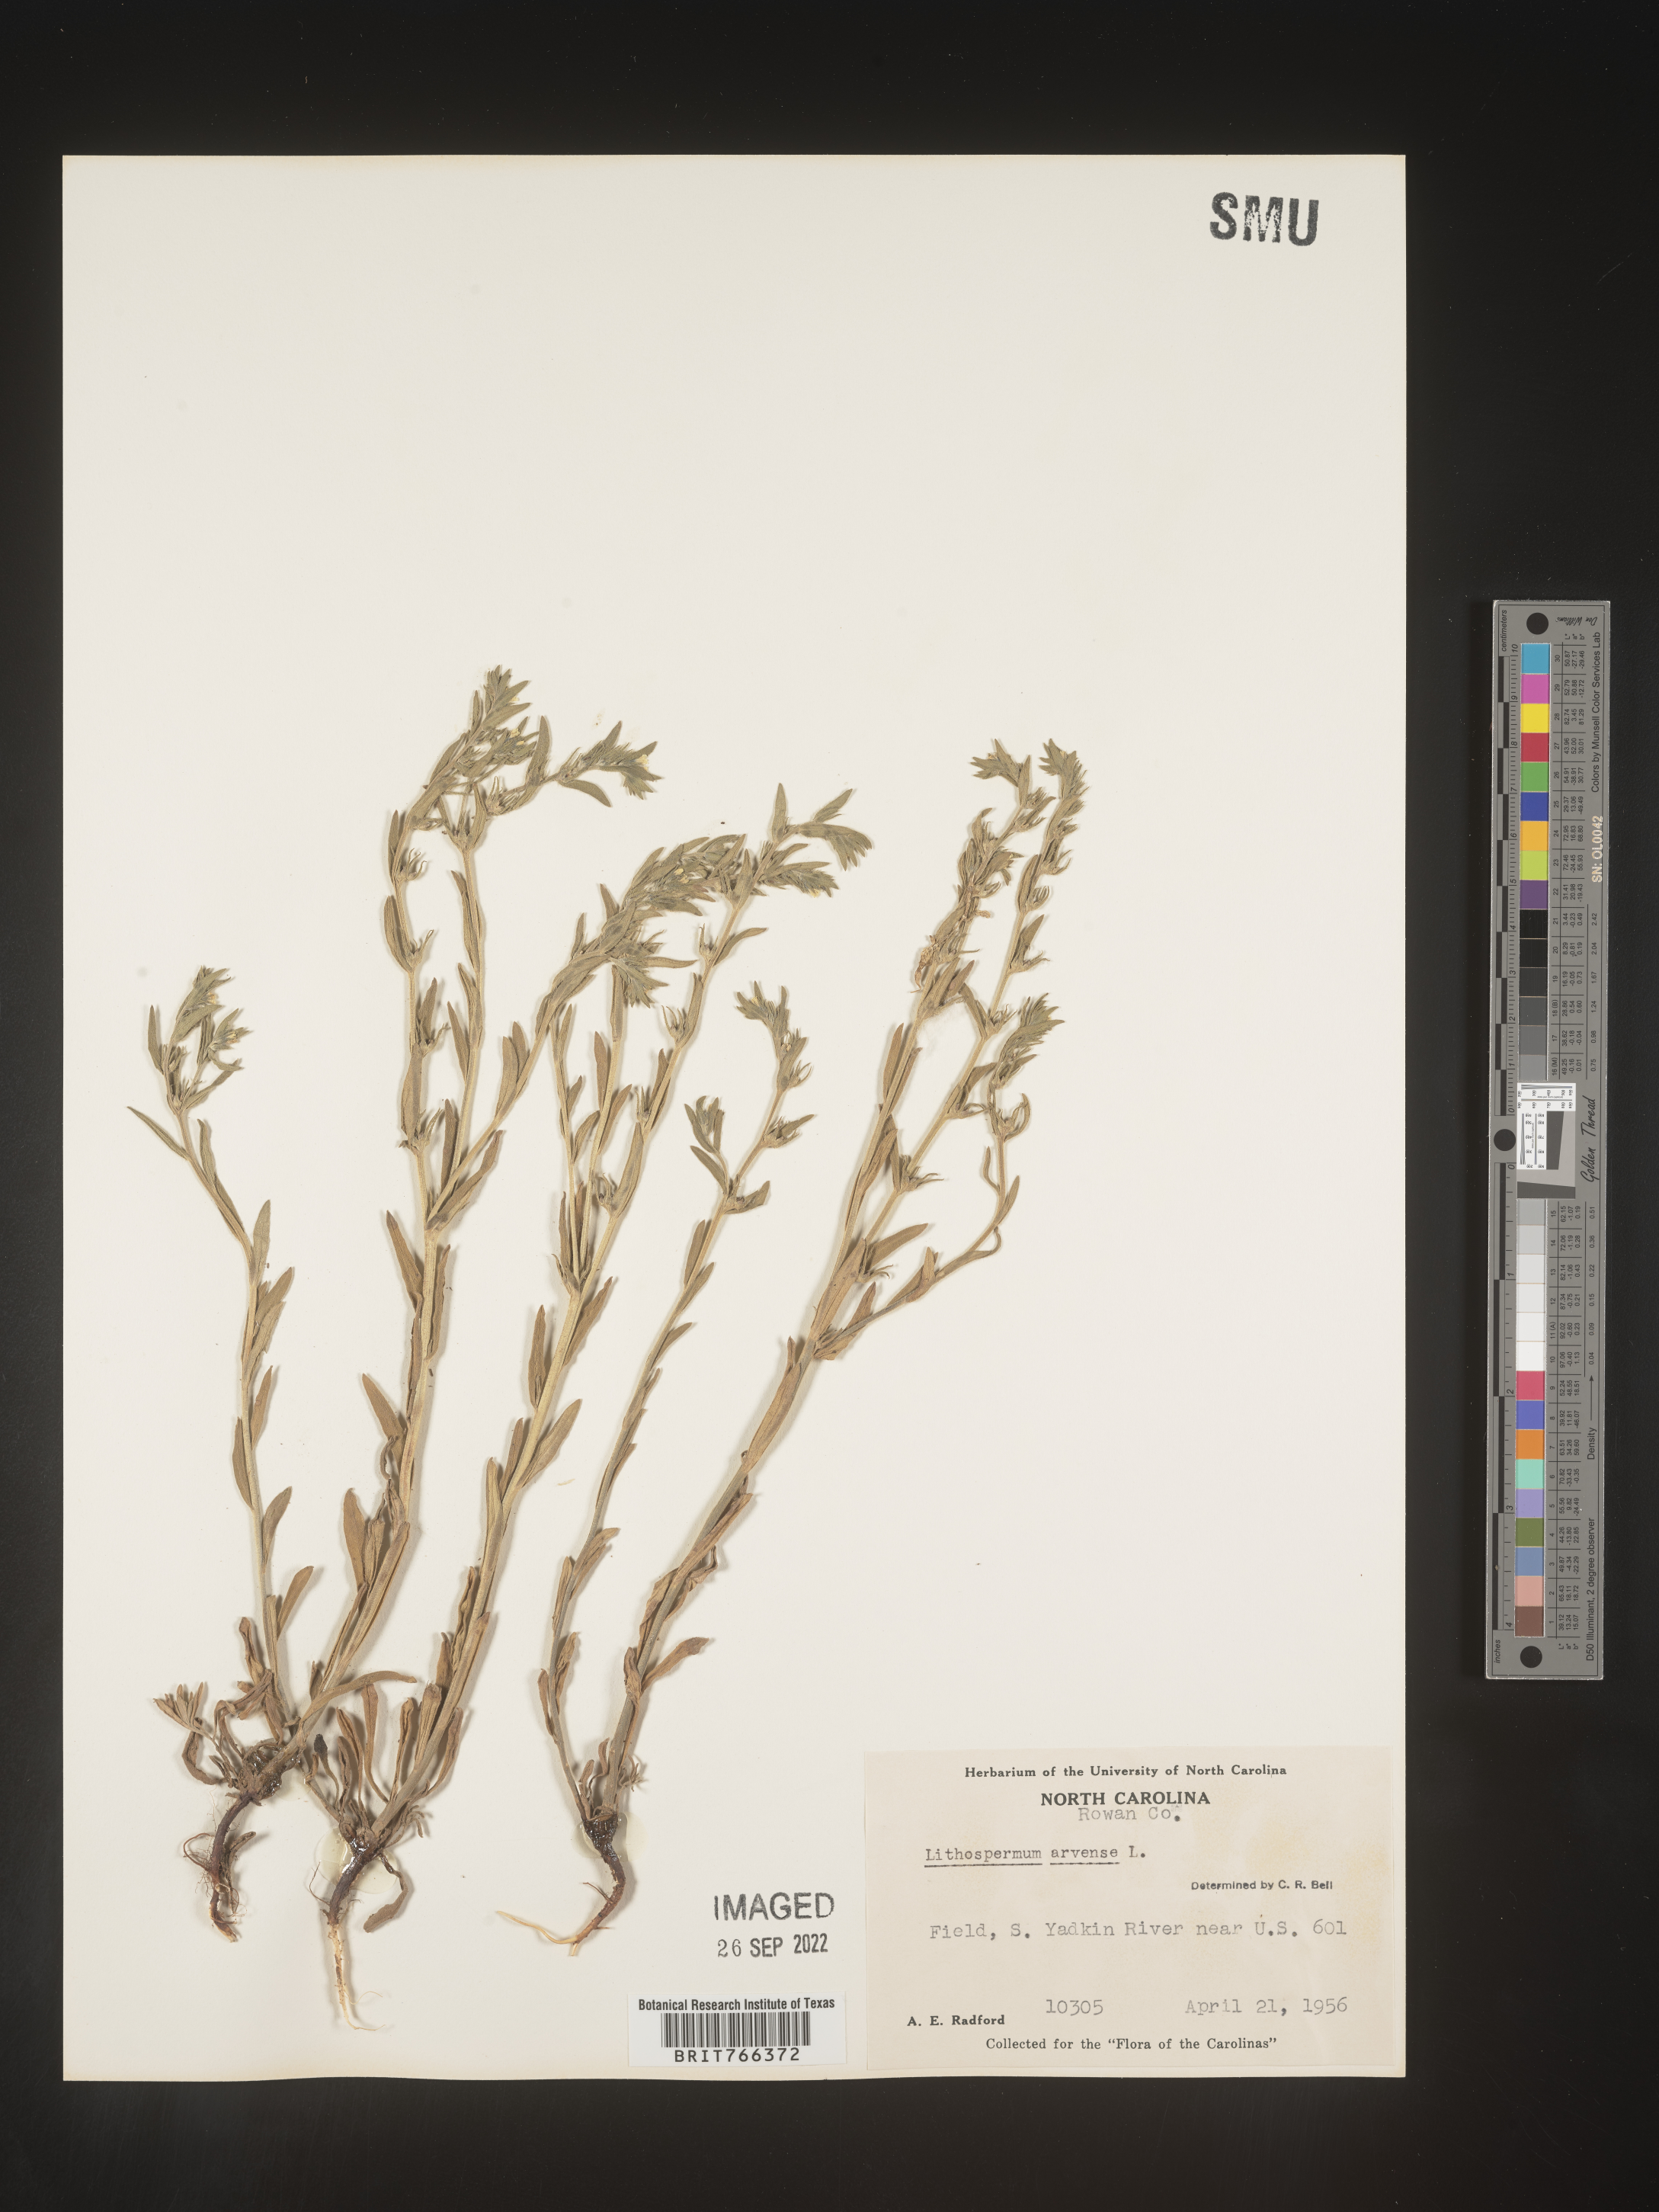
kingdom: Plantae
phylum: Tracheophyta
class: Magnoliopsida
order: Boraginales
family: Boraginaceae
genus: Buglossoides
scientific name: Buglossoides arvensis
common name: Corn gromwell
